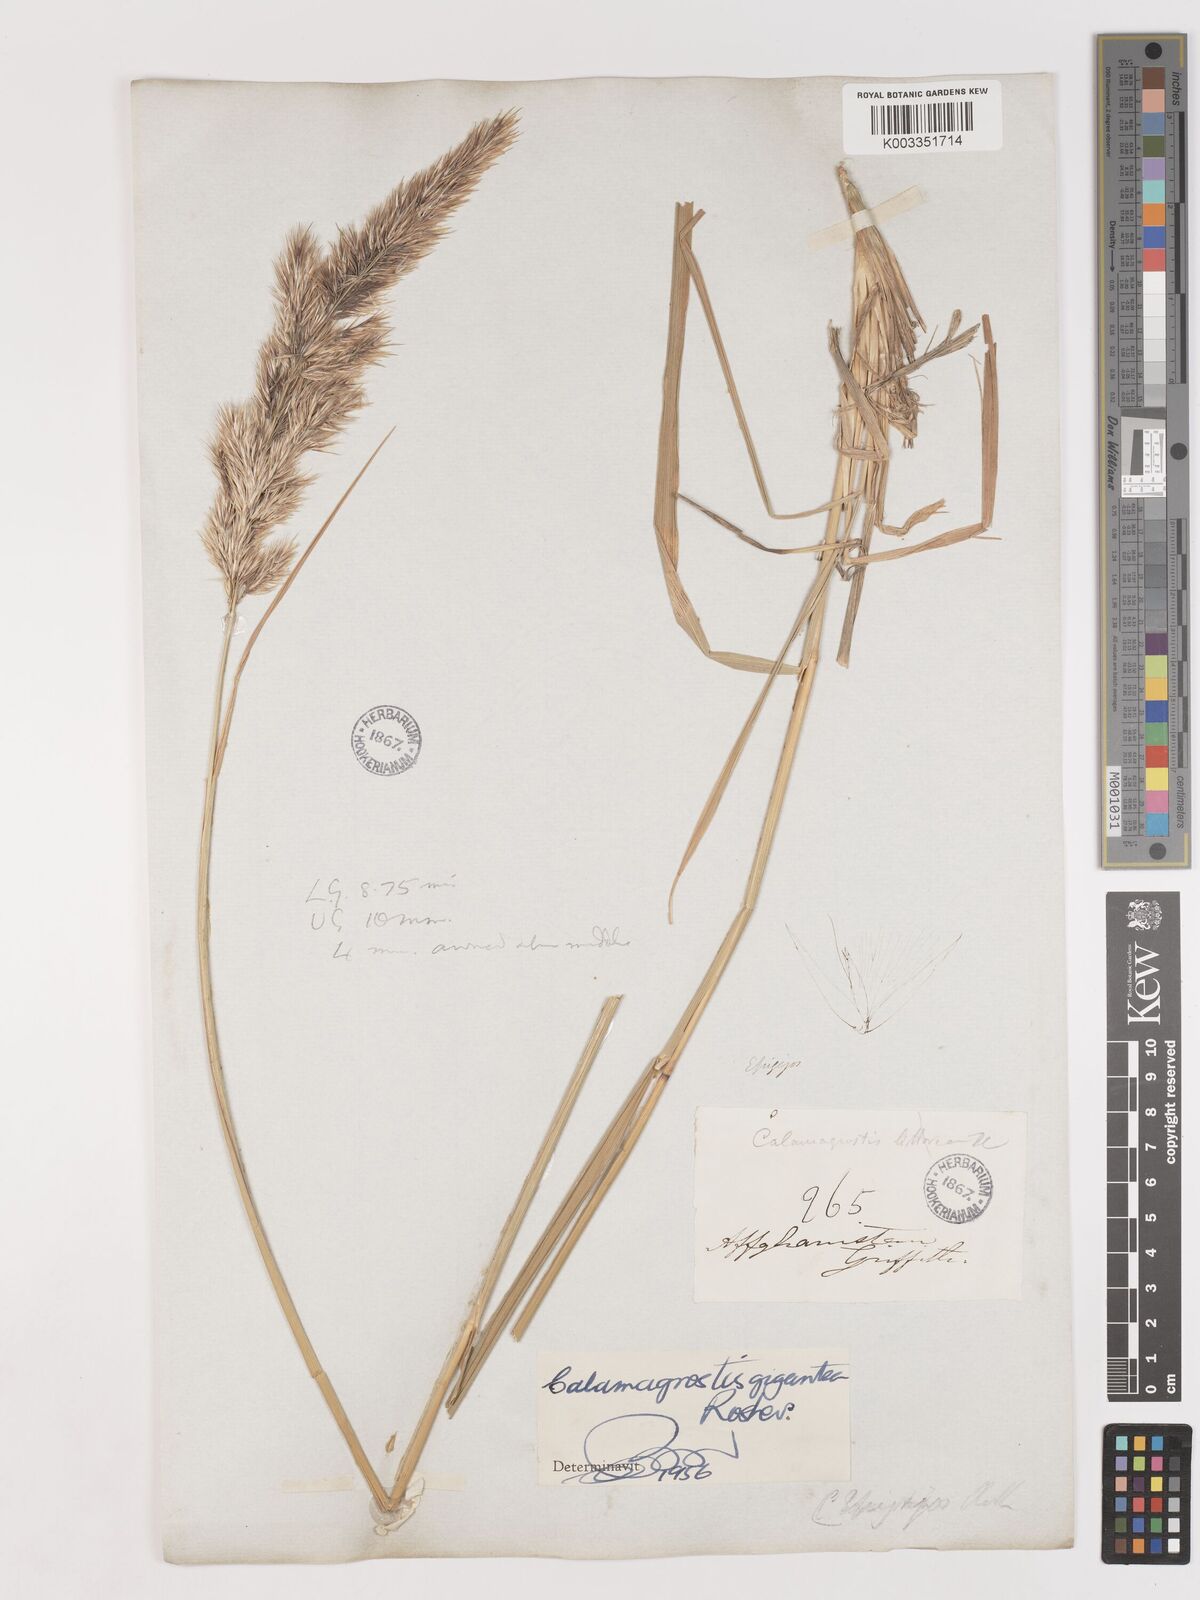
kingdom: Plantae
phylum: Tracheophyta
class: Liliopsida
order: Poales
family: Poaceae
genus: Calamagrostis
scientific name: Calamagrostis epigejos
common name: Wood small-reed
